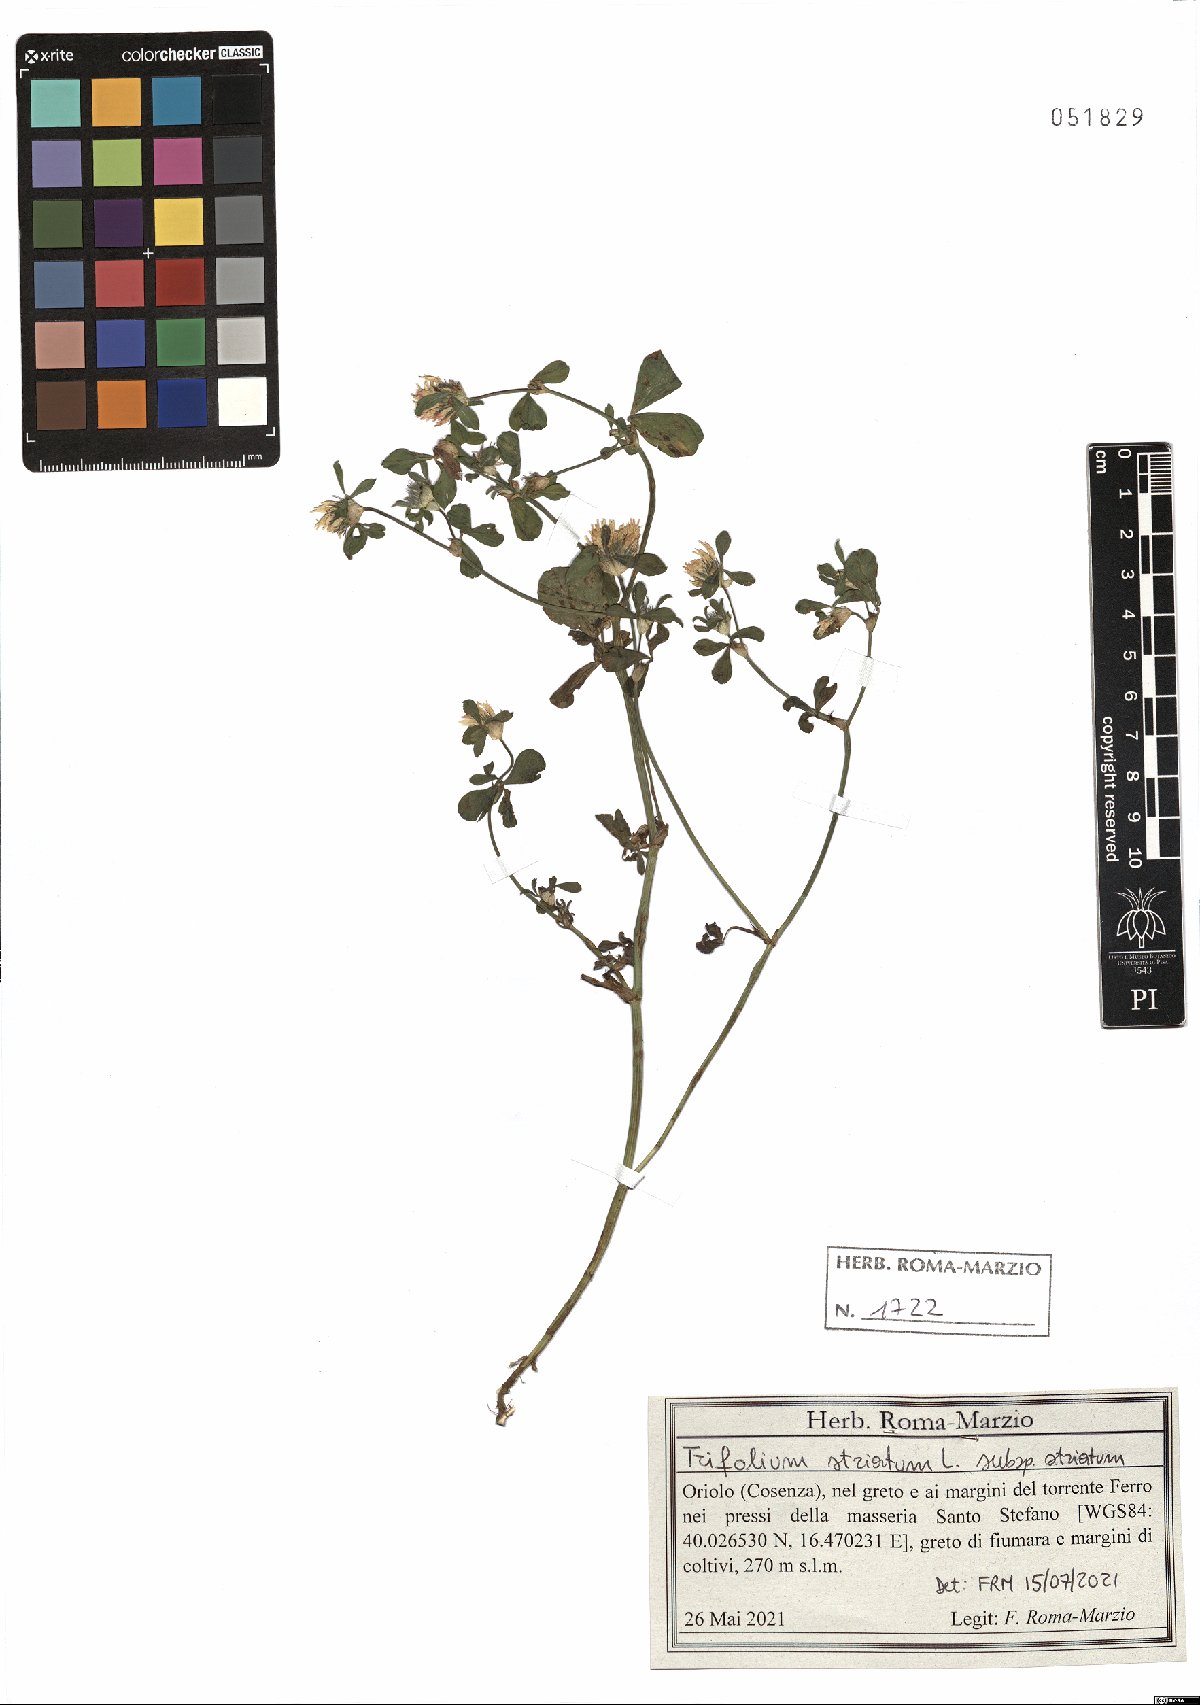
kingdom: Plantae
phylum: Tracheophyta
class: Magnoliopsida
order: Fabales
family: Fabaceae
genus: Trifolium
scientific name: Trifolium striatum
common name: Knotted clover
